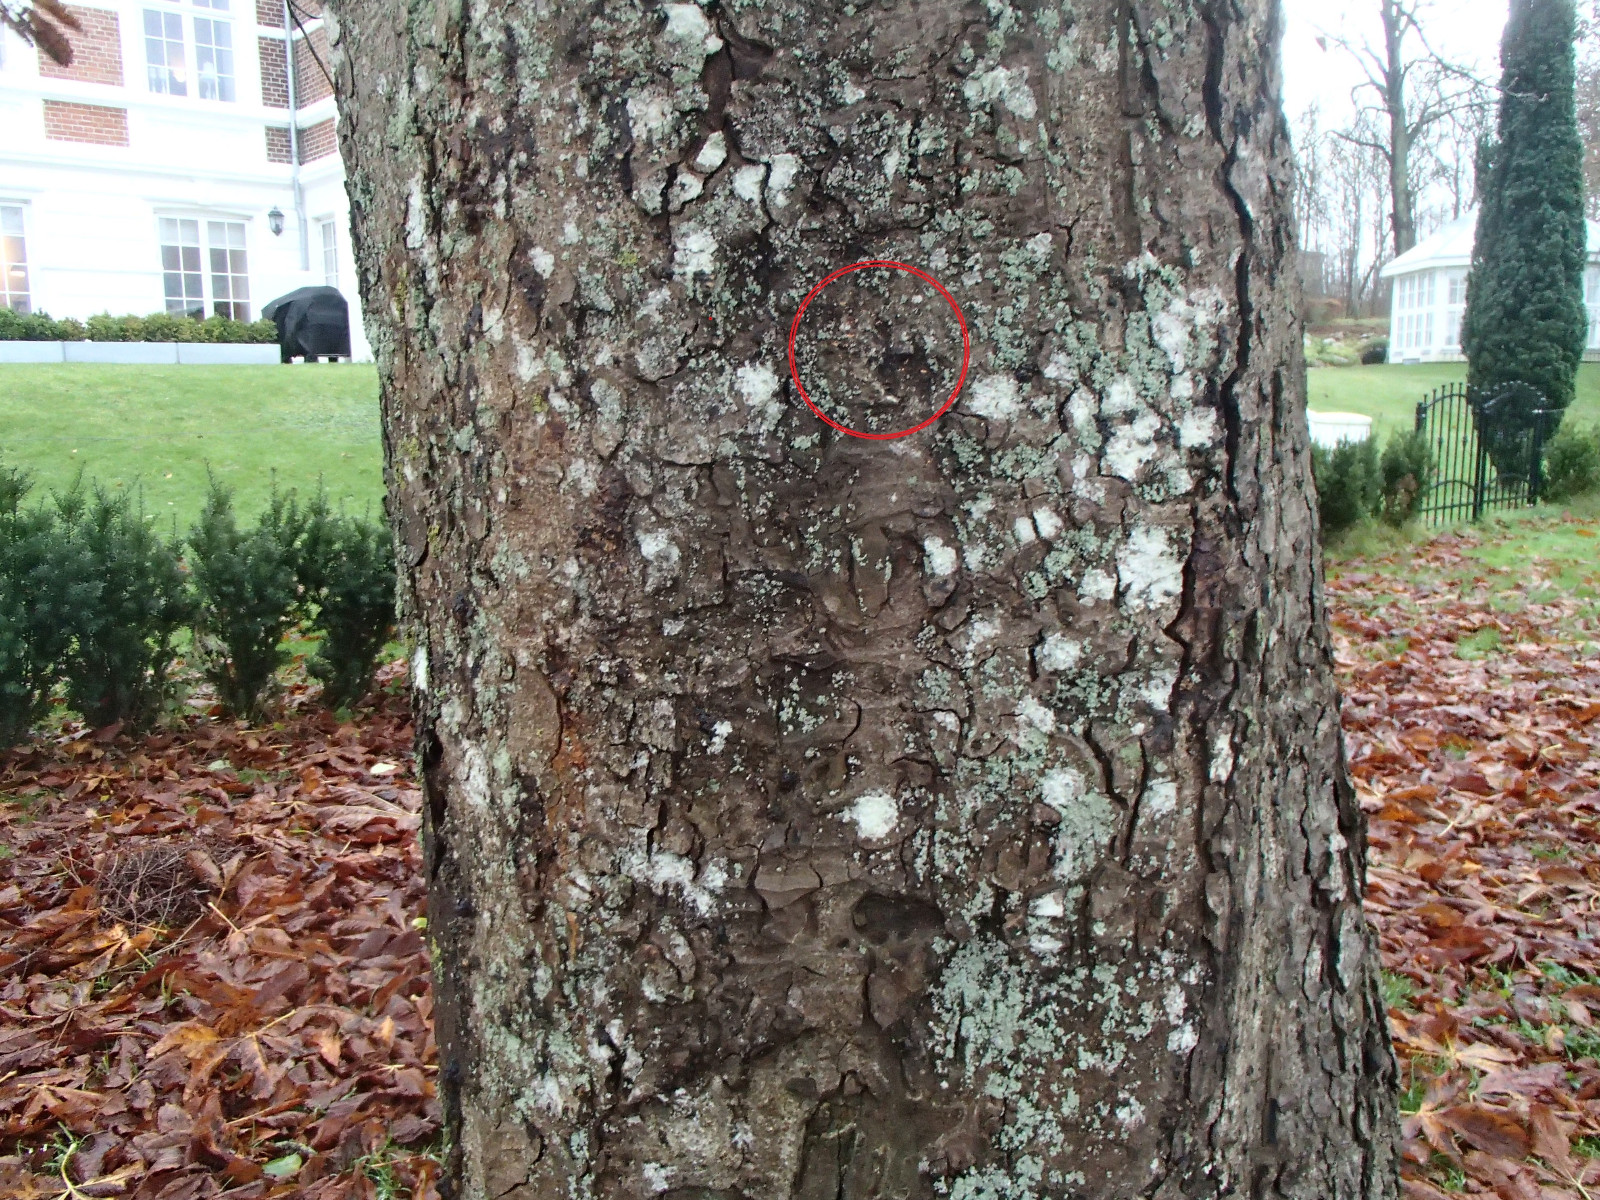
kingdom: Fungi
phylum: Basidiomycota
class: Agaricomycetes
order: Corticiales
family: Corticiaceae
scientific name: Corticiaceae
